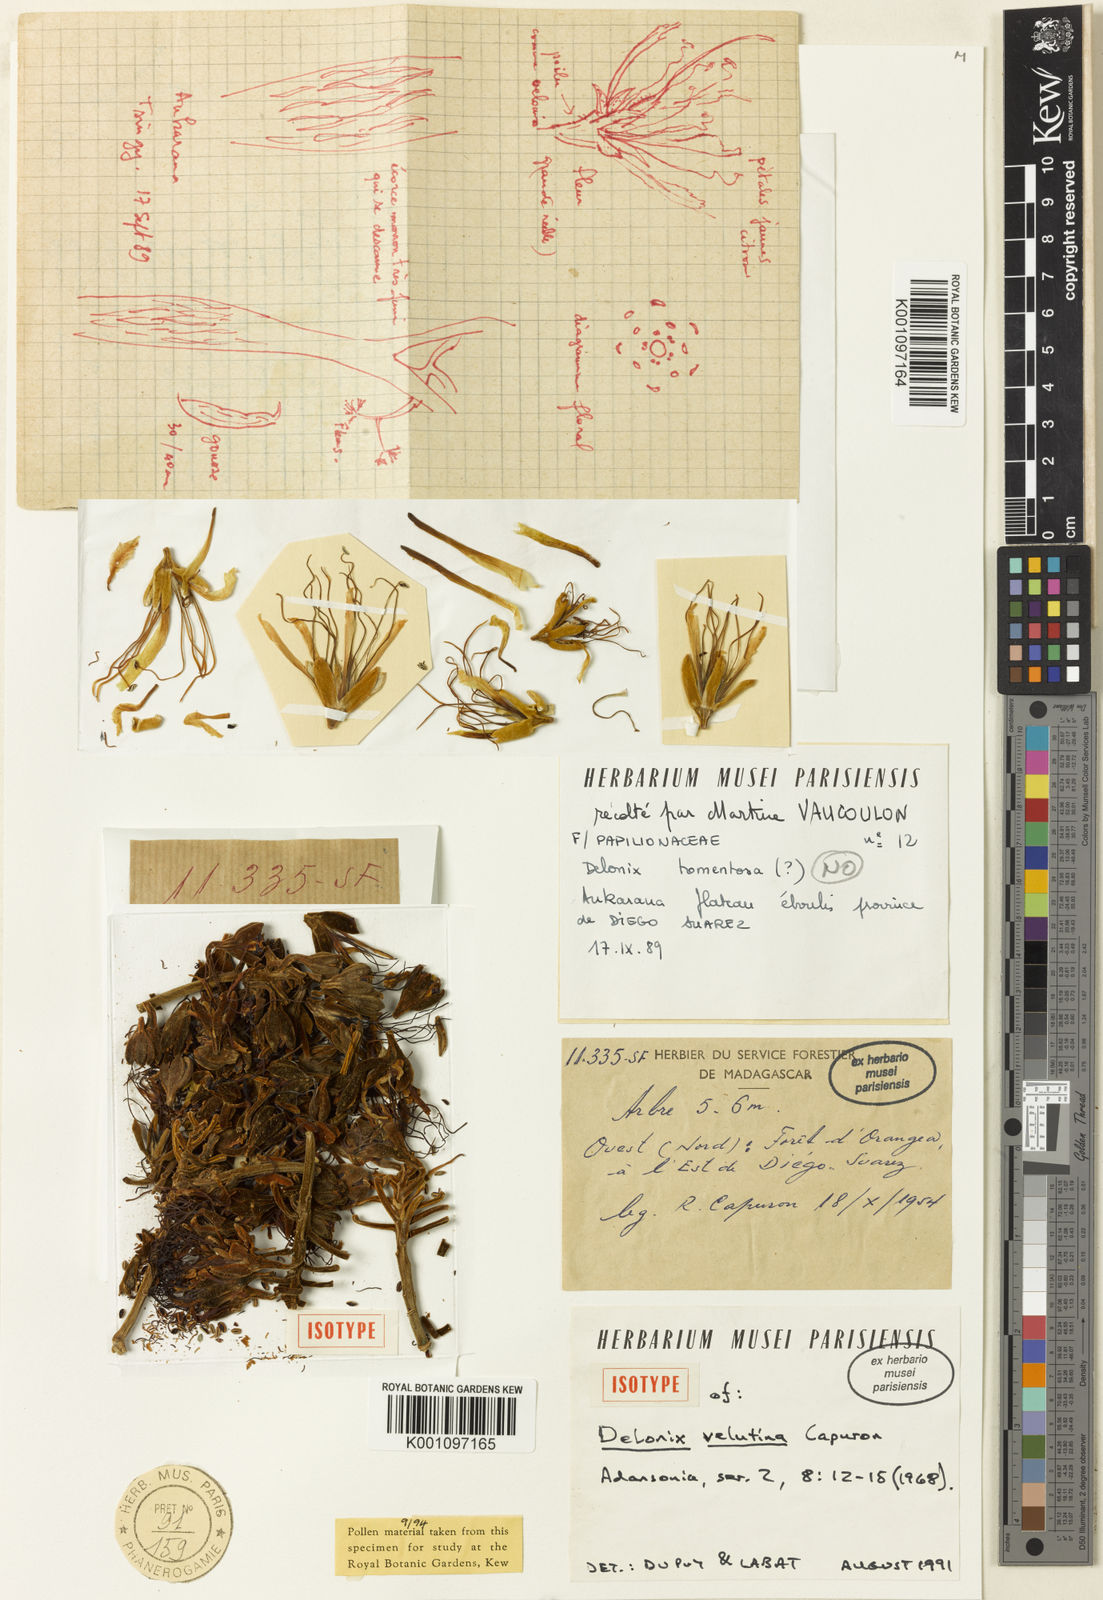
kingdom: Plantae
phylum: Tracheophyta
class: Magnoliopsida
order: Fabales
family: Fabaceae
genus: Delonix
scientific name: Delonix velutina
